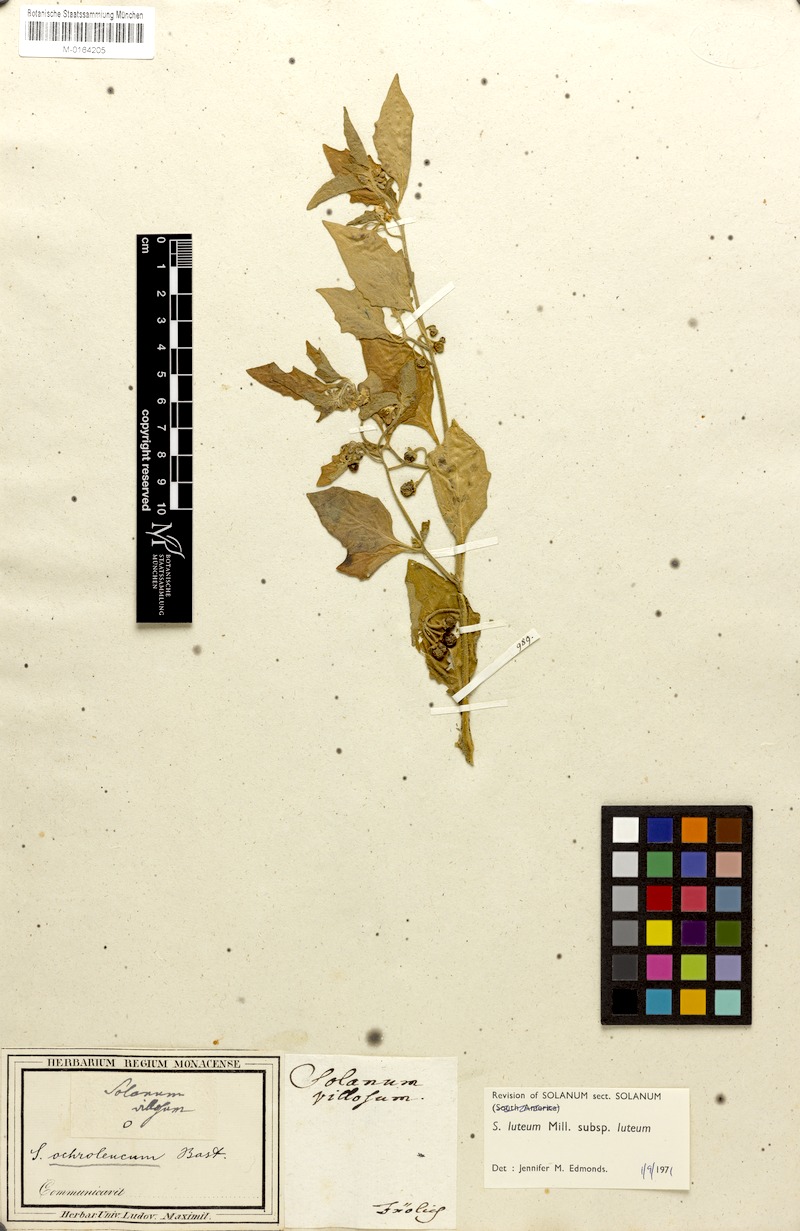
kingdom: Plantae
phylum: Tracheophyta
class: Magnoliopsida
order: Solanales
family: Solanaceae
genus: Solanum
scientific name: Solanum villosum
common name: Red nightshade
